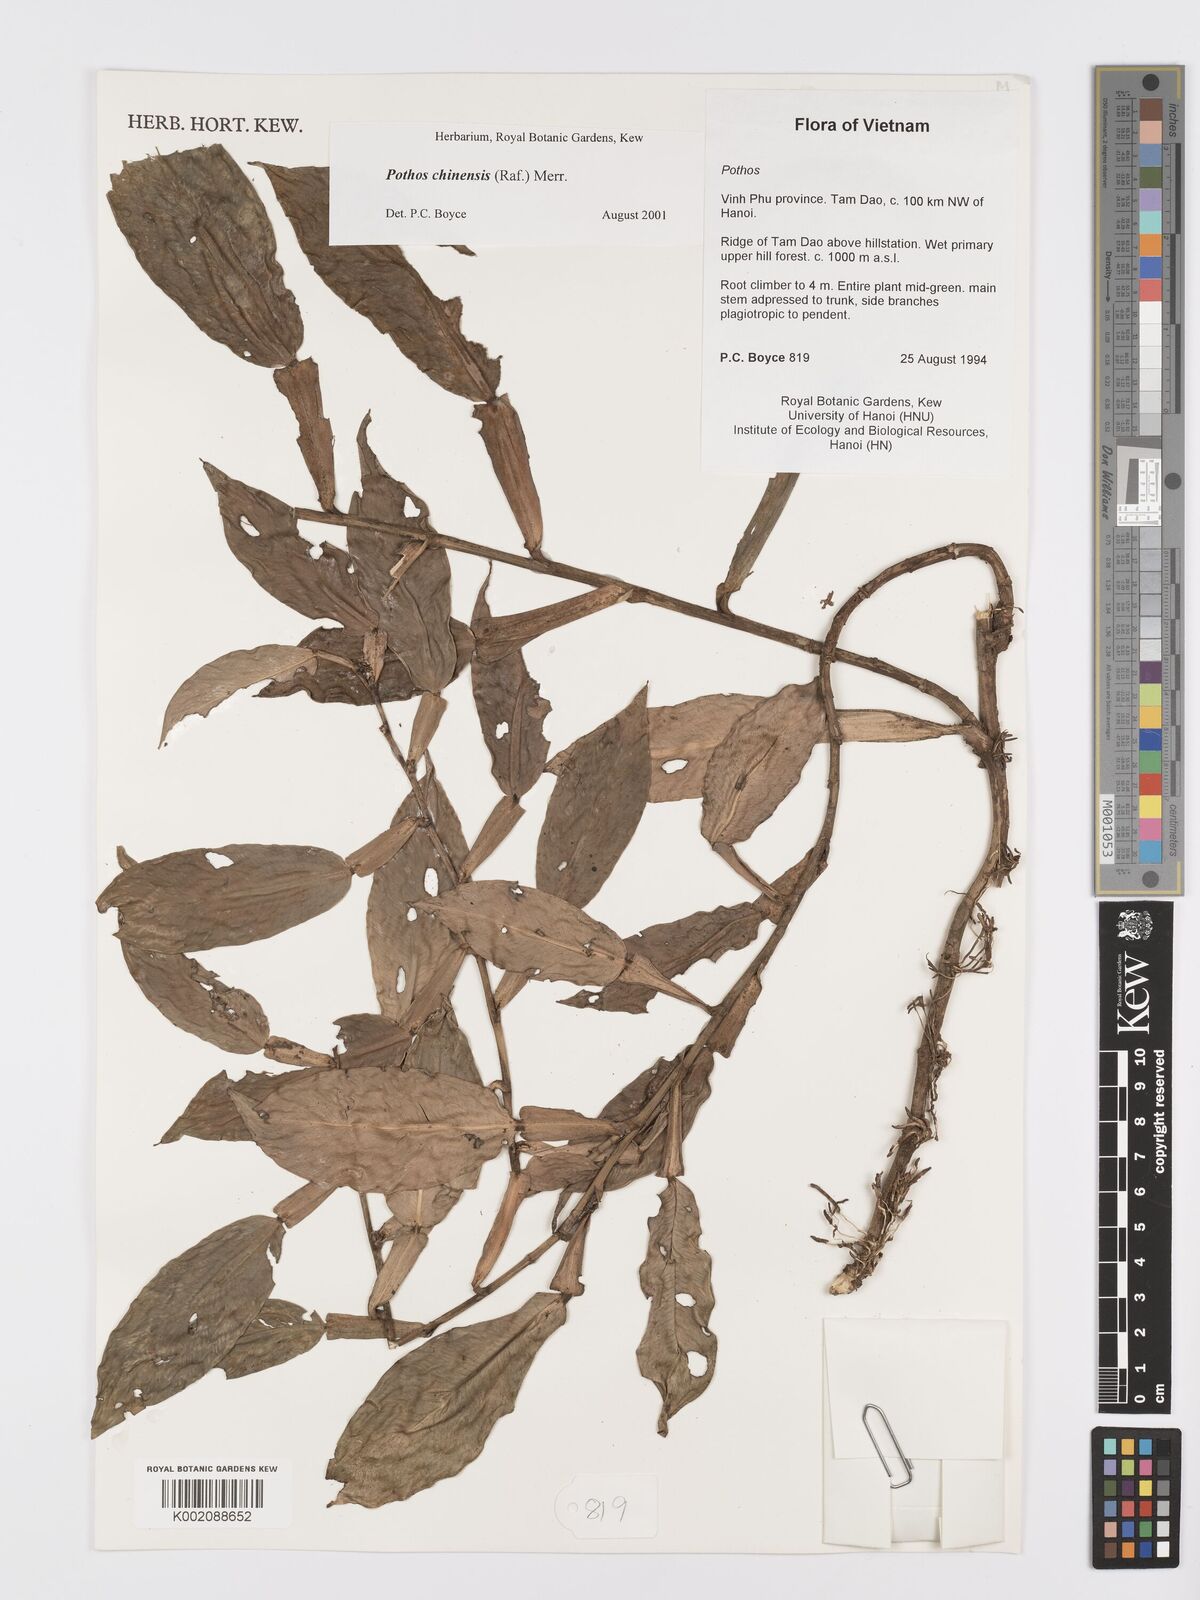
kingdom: Plantae
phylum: Tracheophyta
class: Liliopsida
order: Alismatales
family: Araceae
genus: Pothos
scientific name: Pothos chinensis
